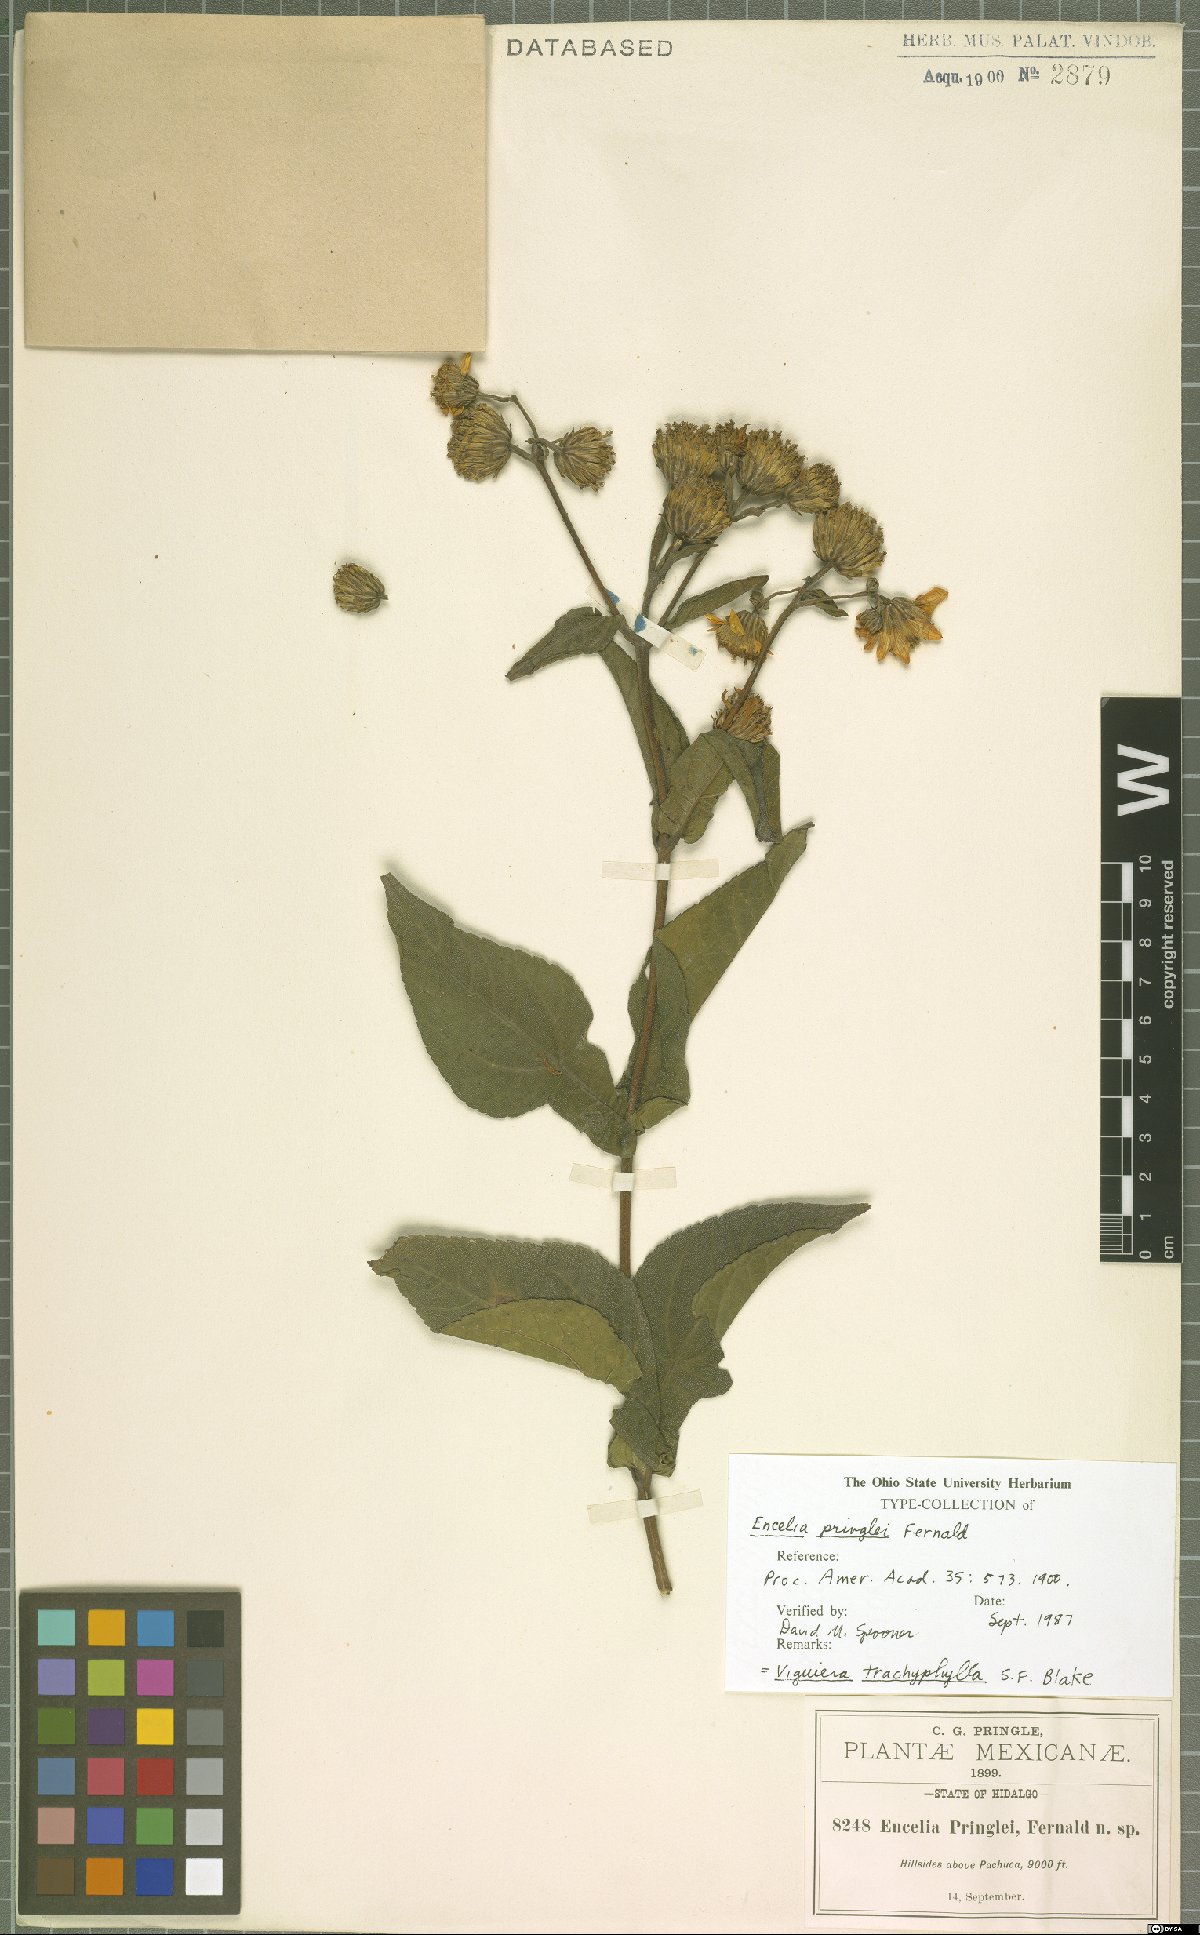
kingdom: Plantae
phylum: Tracheophyta
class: Magnoliopsida
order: Asterales
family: Asteraceae
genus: Dendroviguiera
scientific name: Dendroviguiera pringlei
